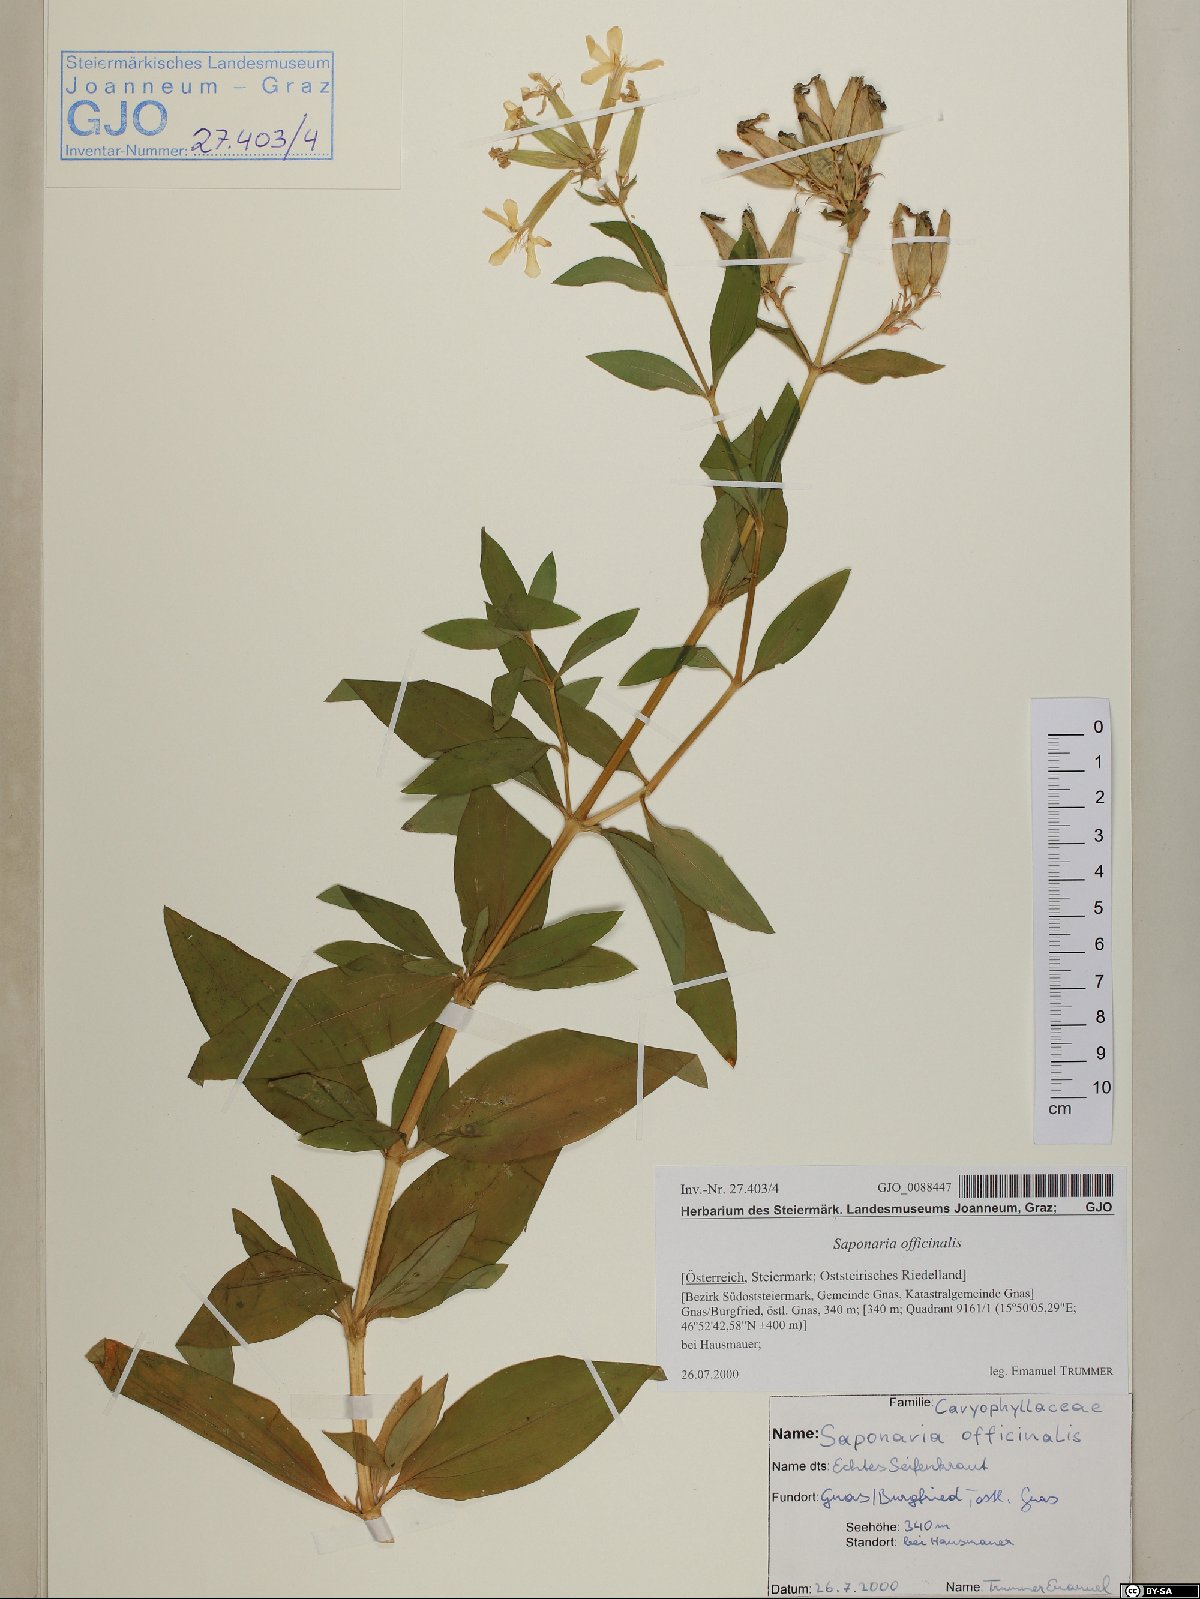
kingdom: Plantae
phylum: Tracheophyta
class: Magnoliopsida
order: Caryophyllales
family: Caryophyllaceae
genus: Saponaria
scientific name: Saponaria officinalis
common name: Soapwort
